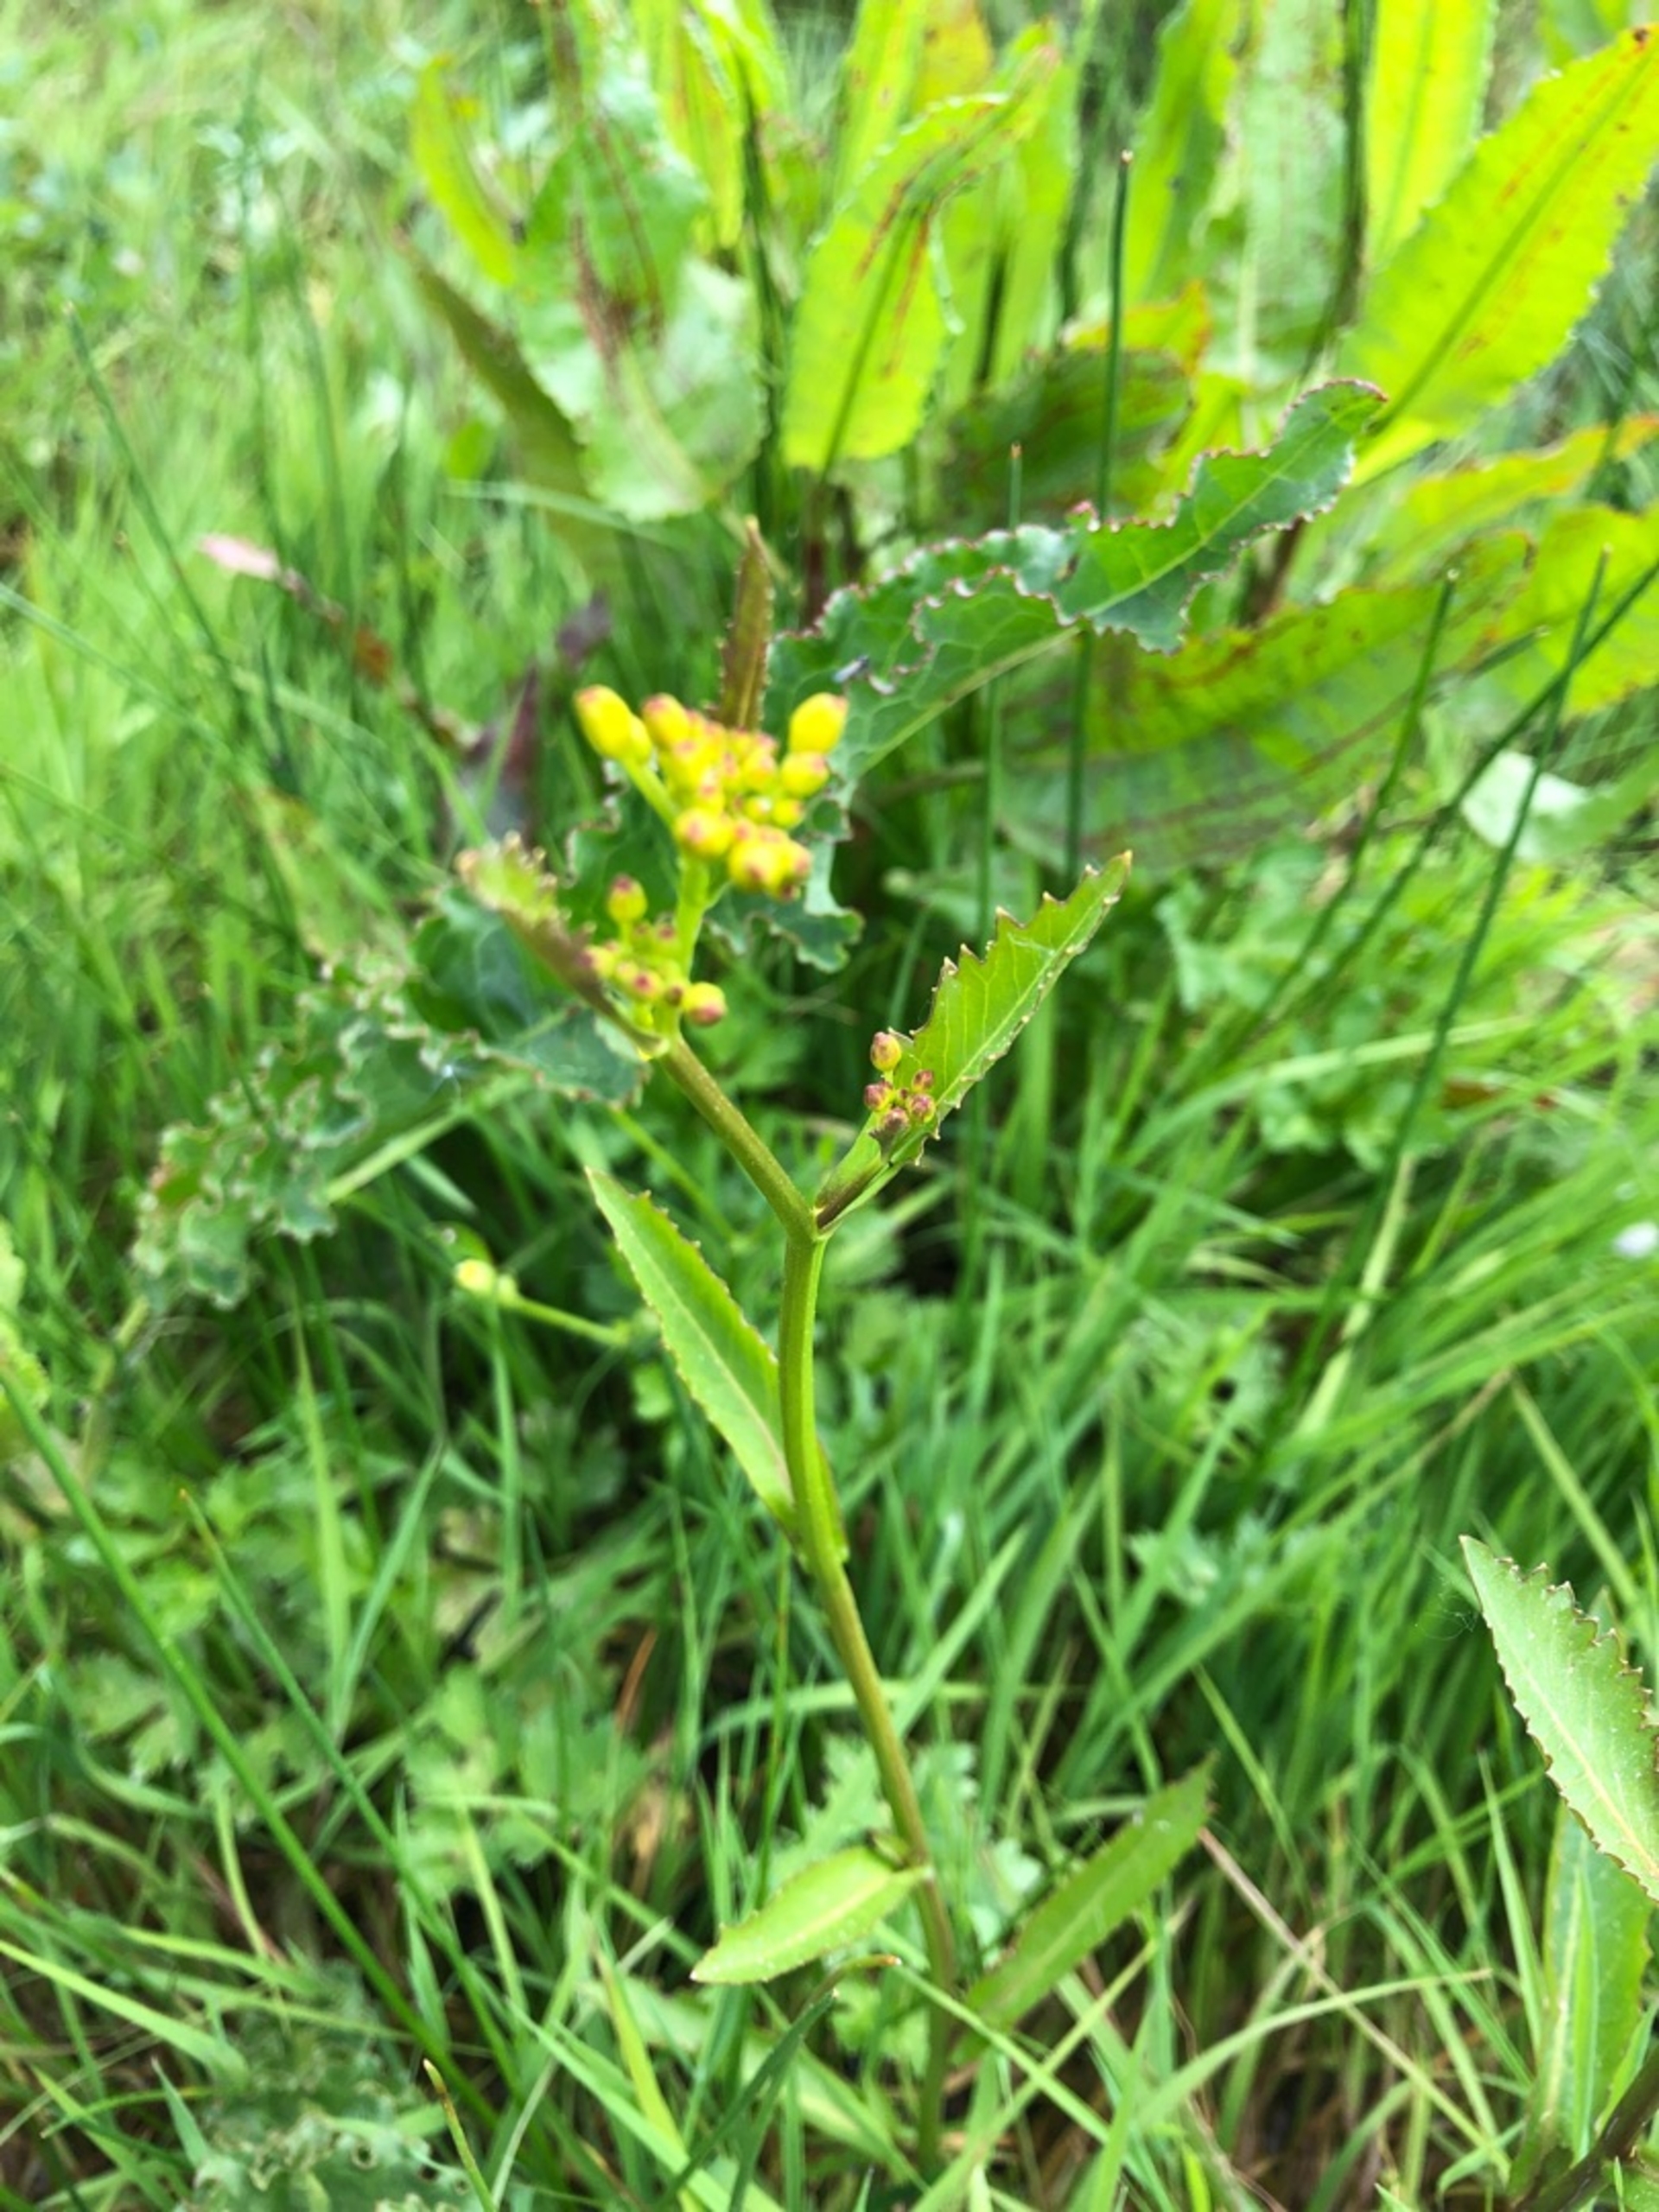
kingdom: Plantae
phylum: Tracheophyta
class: Magnoliopsida
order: Brassicales
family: Brassicaceae
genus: Rorippa
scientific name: Rorippa anceps
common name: Hybrid-guldkarse
